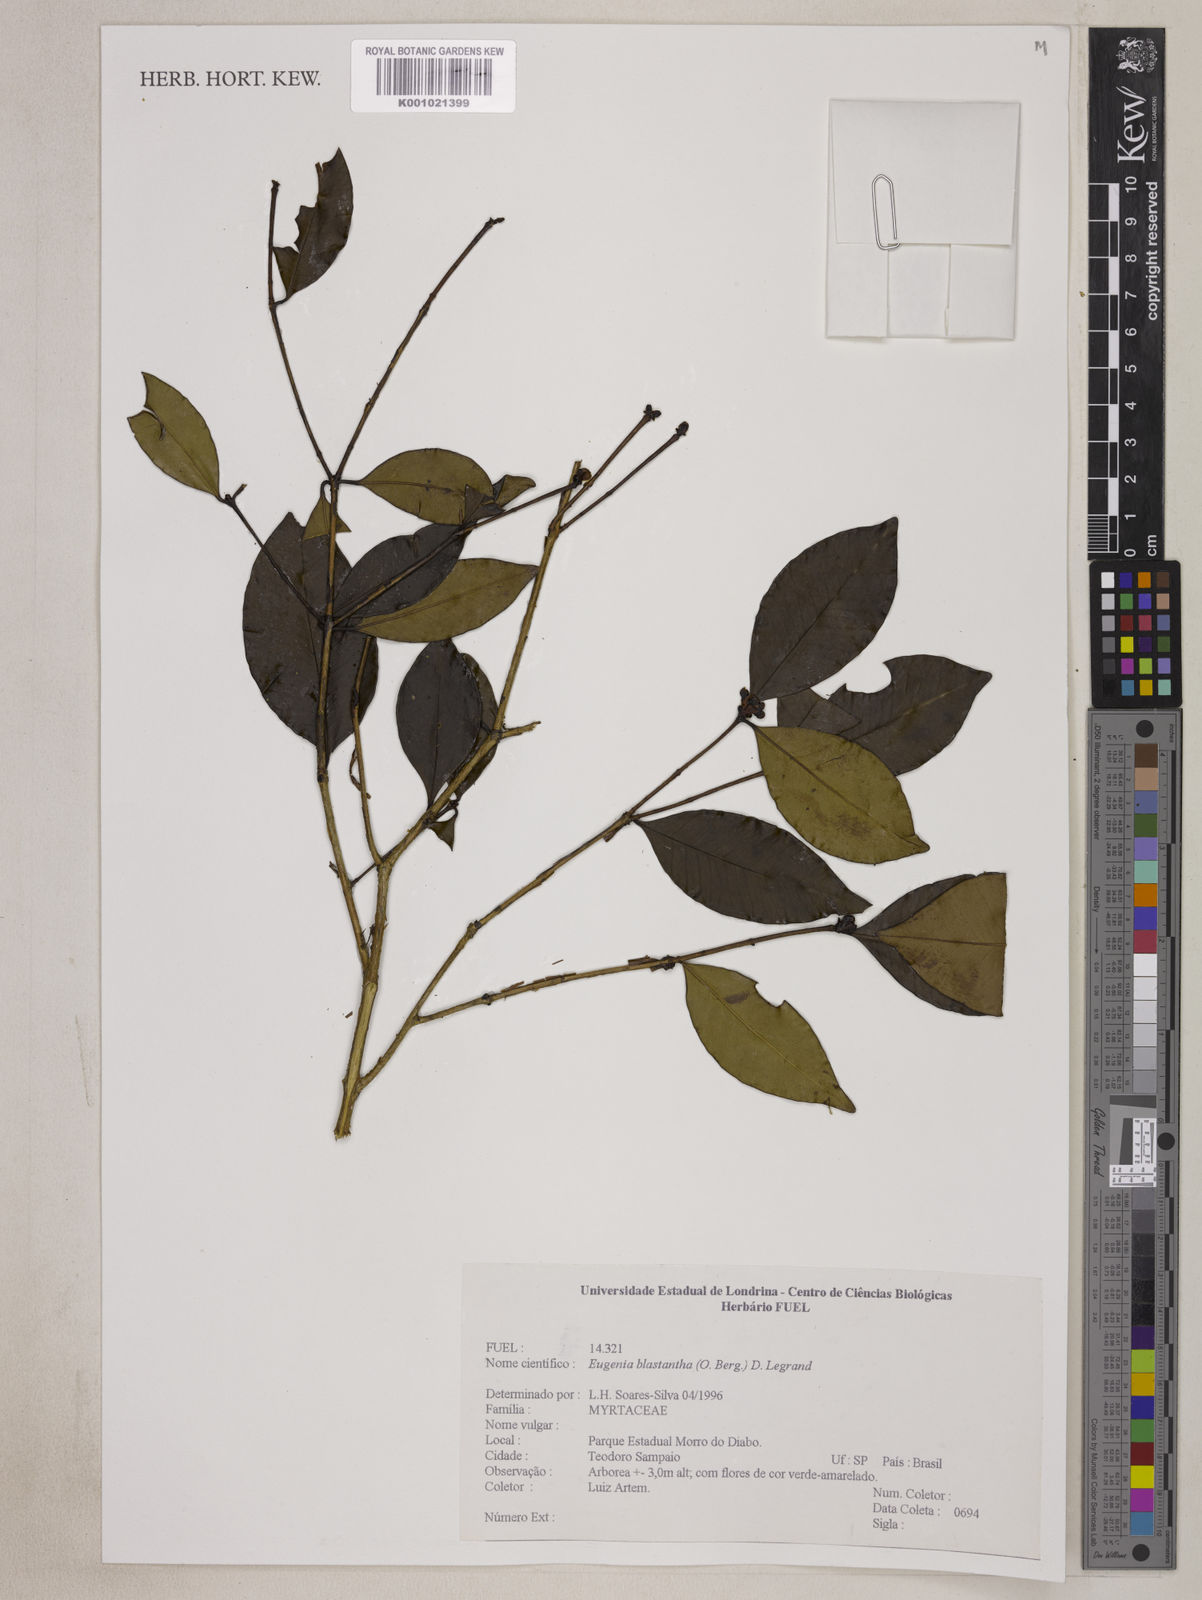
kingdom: Plantae
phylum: Tracheophyta
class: Magnoliopsida
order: Myrtales
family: Myrtaceae
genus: Eugenia
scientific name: Eugenia blastantha
